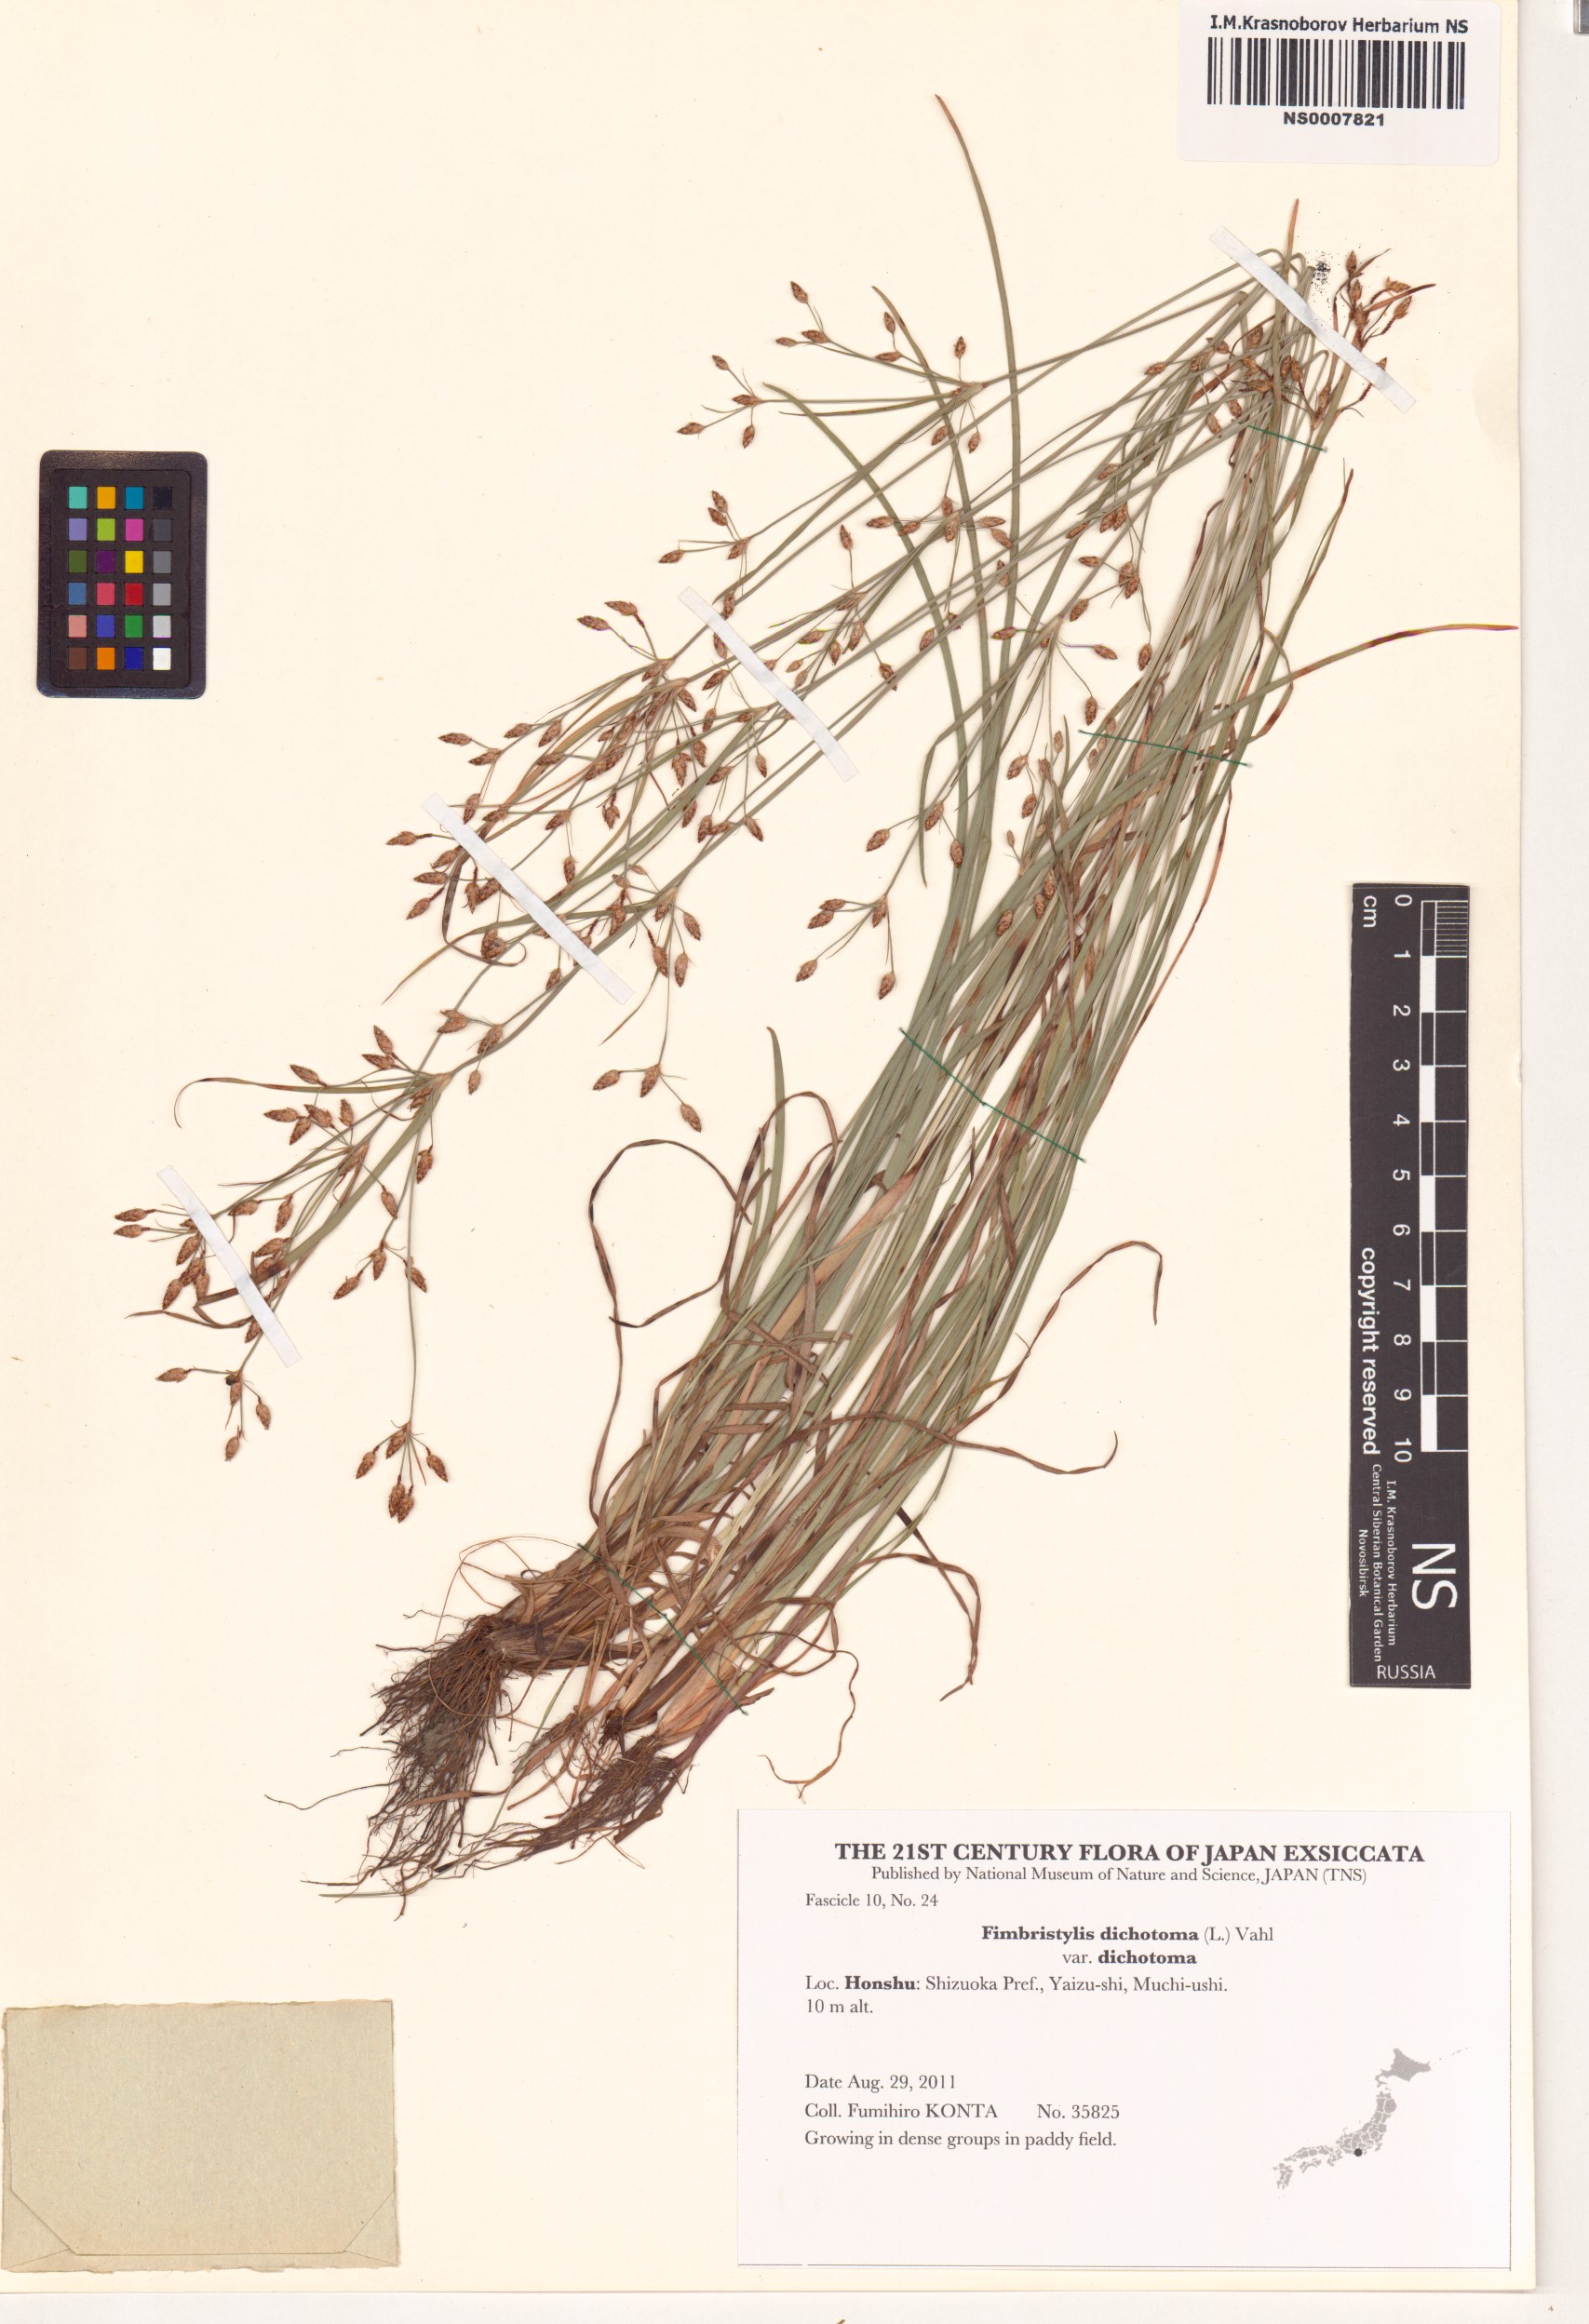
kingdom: Plantae
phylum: Tracheophyta
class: Liliopsida
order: Poales
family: Cyperaceae
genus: Fimbristylis
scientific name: Fimbristylis dichotoma
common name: Forked fimbry
